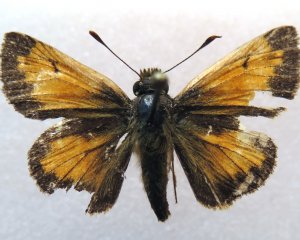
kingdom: Animalia
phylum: Arthropoda
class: Insecta
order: Lepidoptera
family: Hesperiidae
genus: Lon
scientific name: Lon hobomok
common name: Hobomok Skipper
